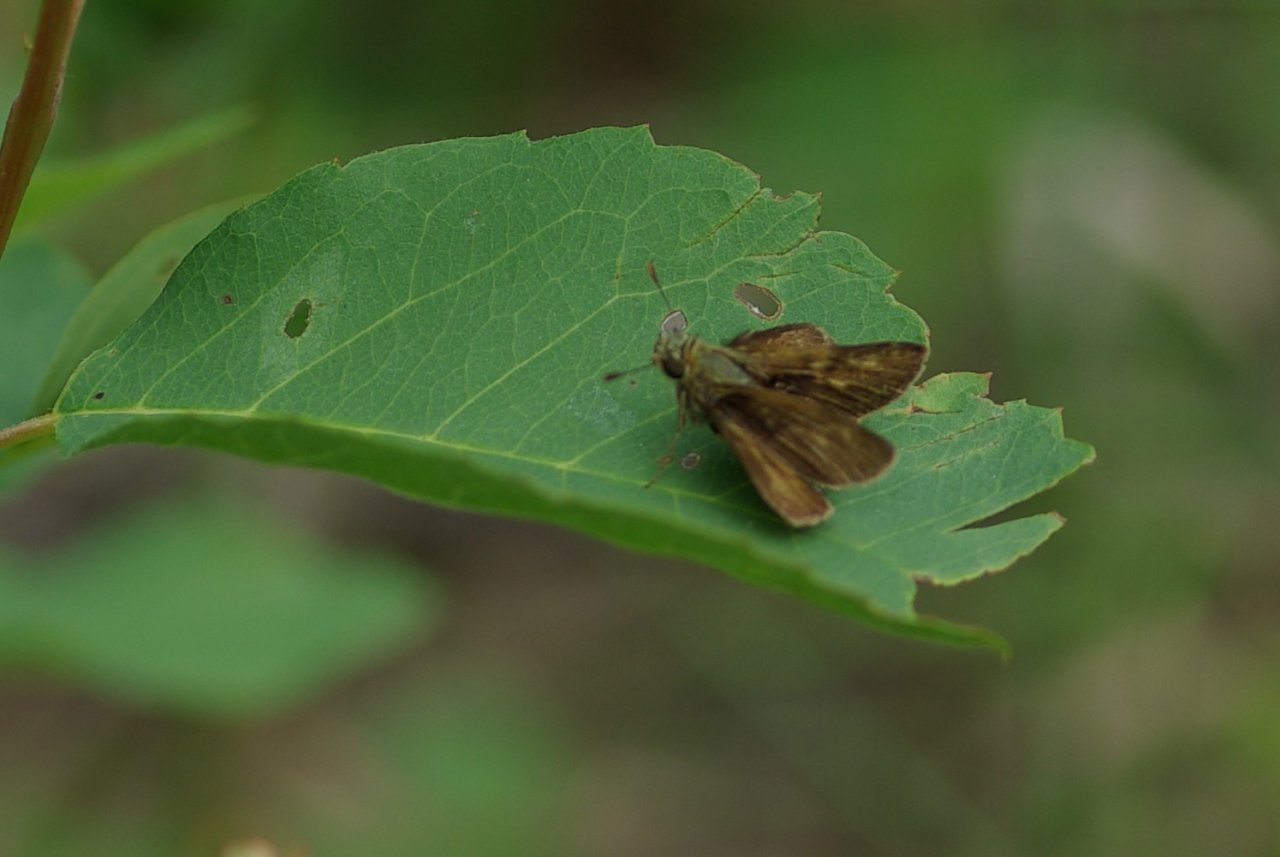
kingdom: Animalia
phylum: Arthropoda
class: Insecta
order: Lepidoptera
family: Hesperiidae
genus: Polites
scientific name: Polites themistocles
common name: Tawny-edged Skipper
